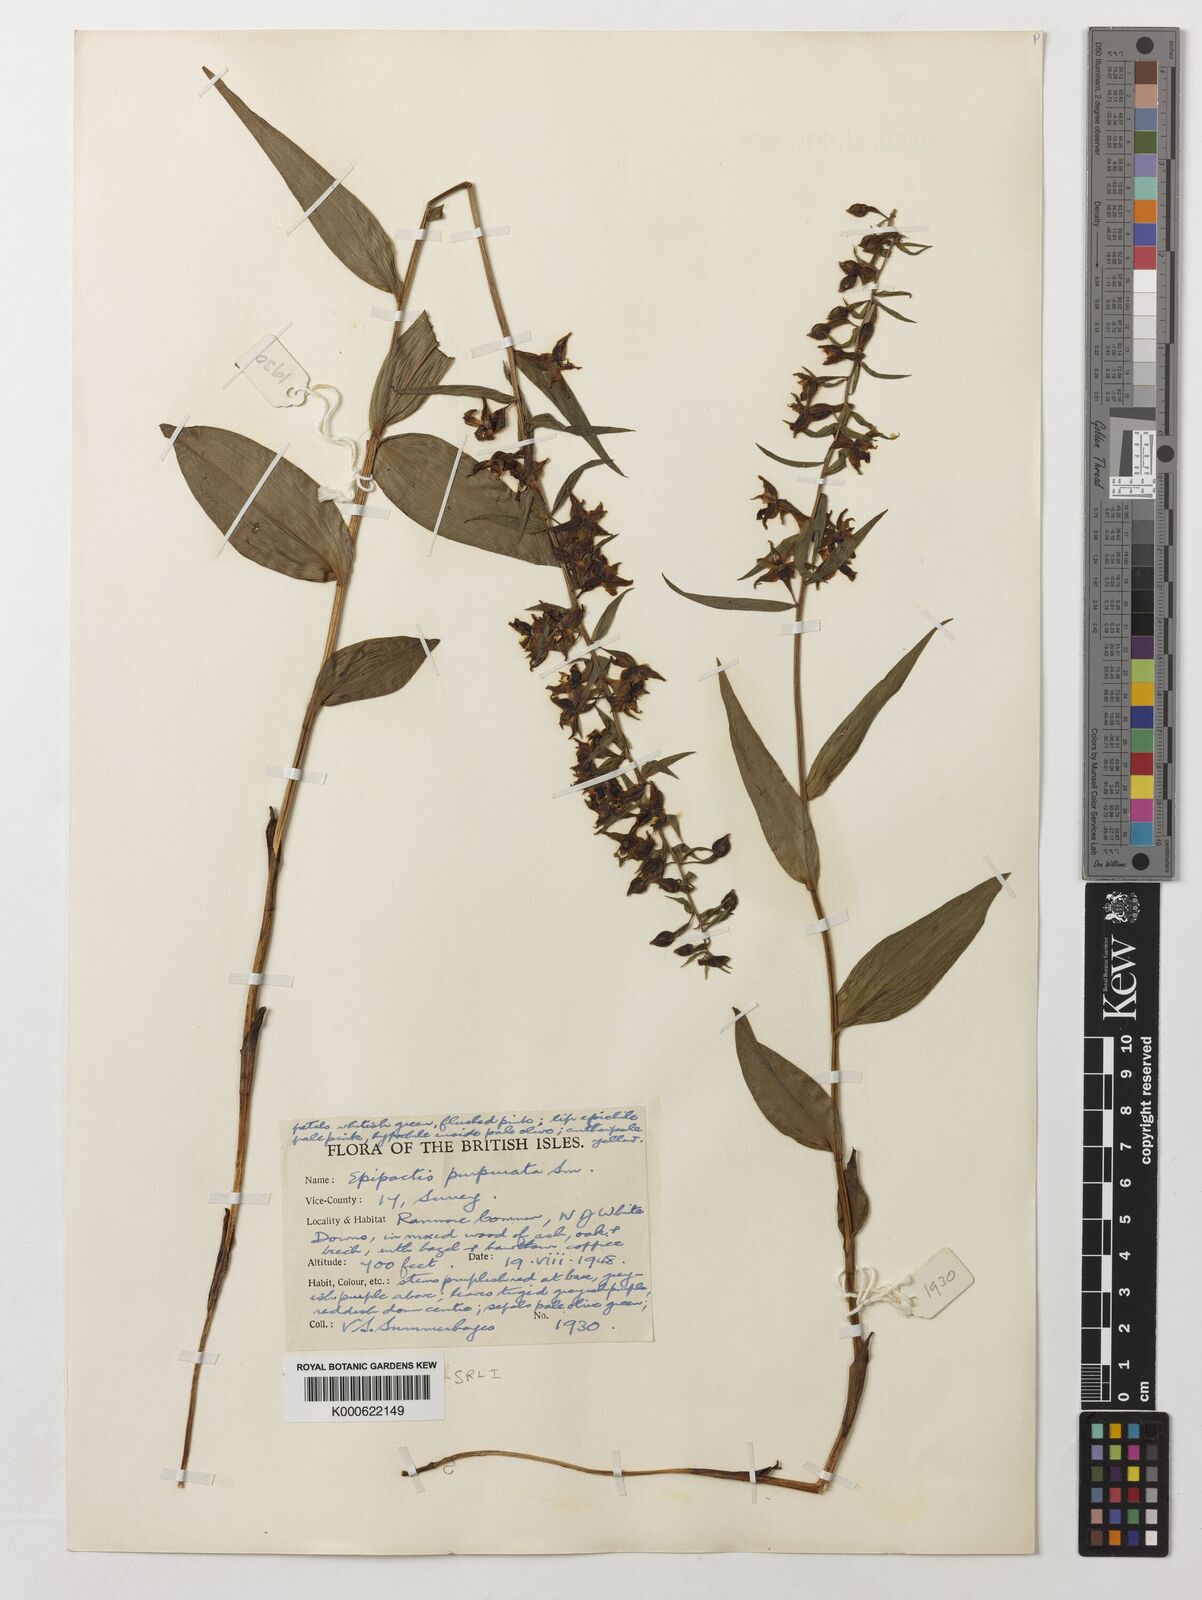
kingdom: Plantae
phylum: Tracheophyta
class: Liliopsida
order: Asparagales
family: Orchidaceae
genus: Epipactis
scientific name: Epipactis purpurata
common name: Violet helleborine
